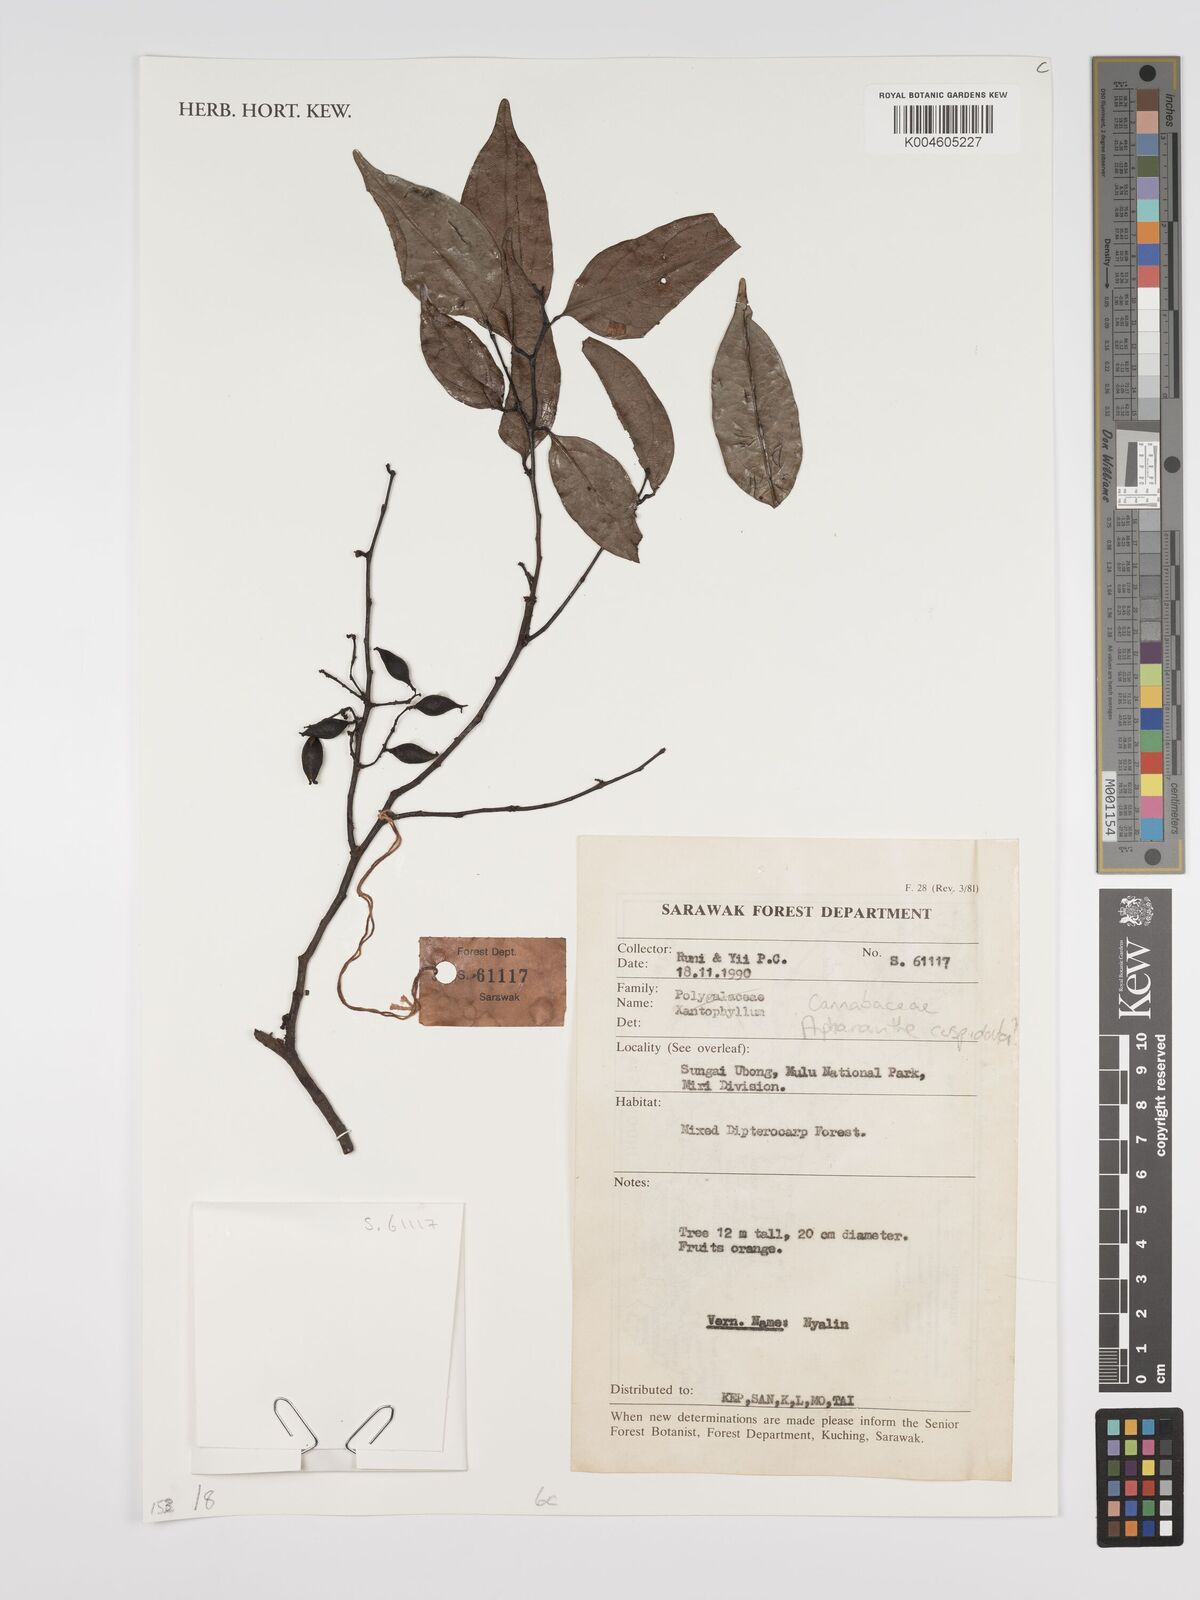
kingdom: Plantae
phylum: Tracheophyta
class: Magnoliopsida
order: Rosales
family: Cannabaceae
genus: Aphananthe
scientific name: Aphananthe cuspidata
